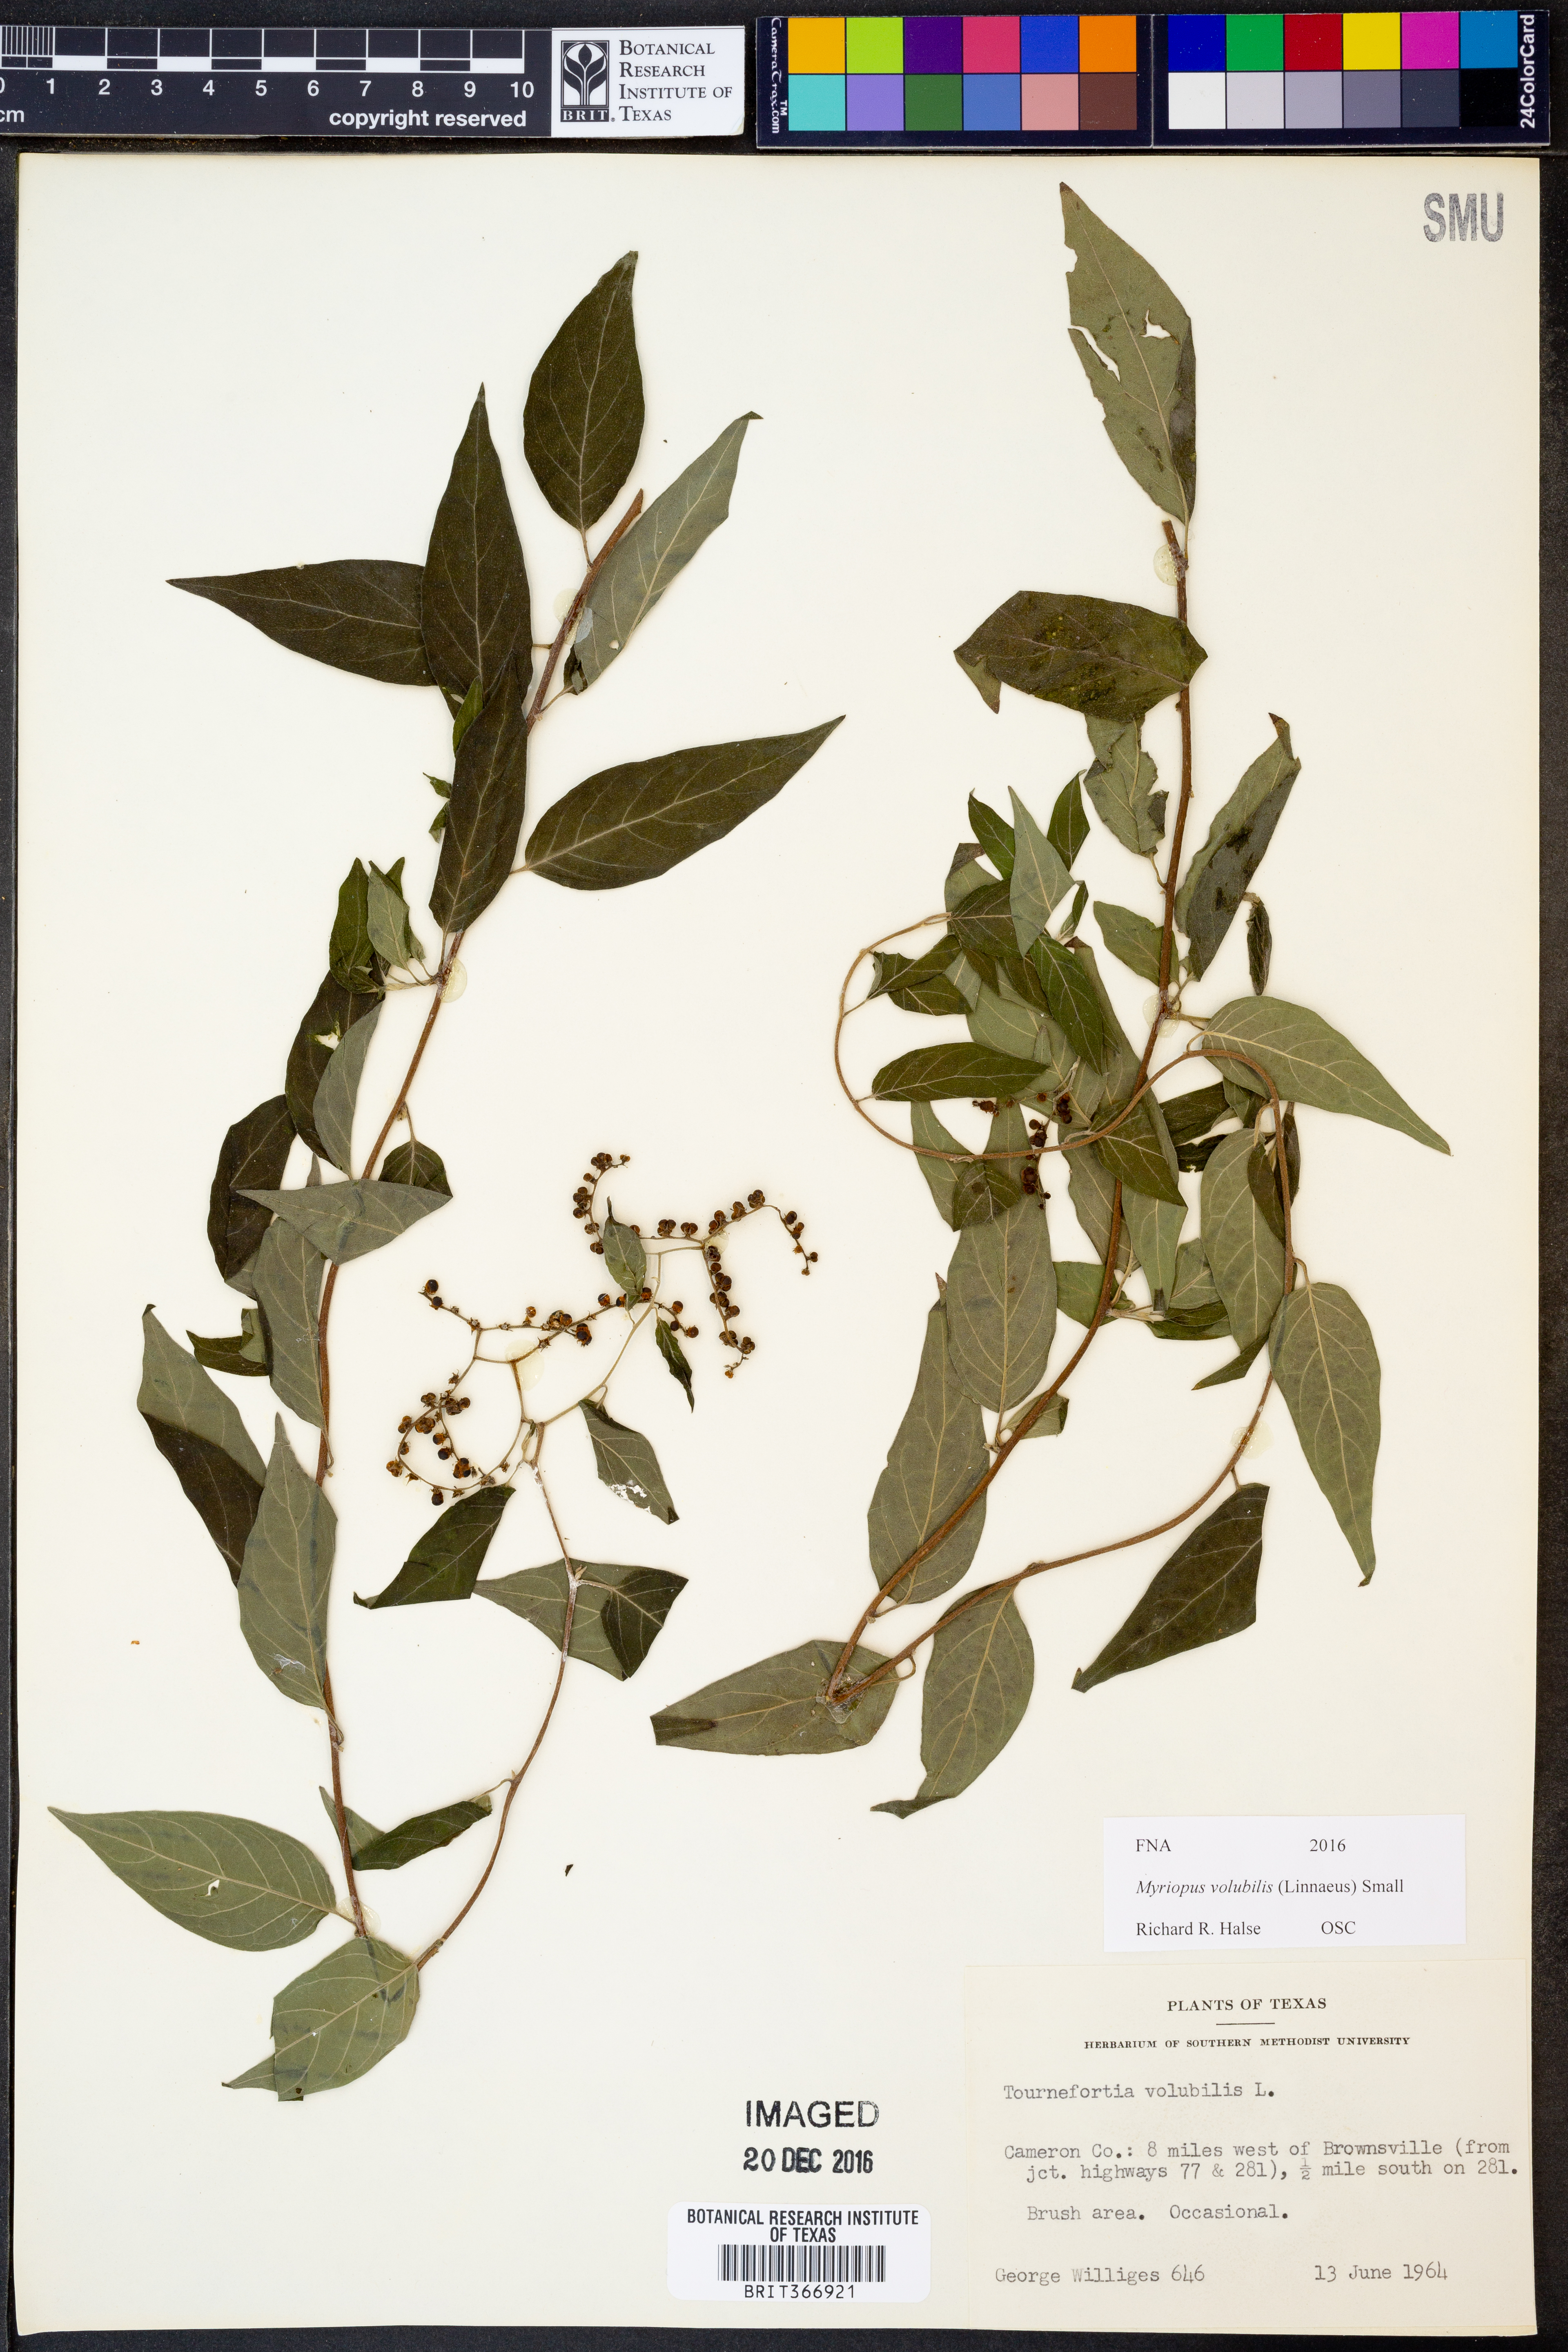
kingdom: Plantae
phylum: Tracheophyta
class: Magnoliopsida
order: Boraginales
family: Heliotropiaceae
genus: Myriopus
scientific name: Myriopus volubilis
